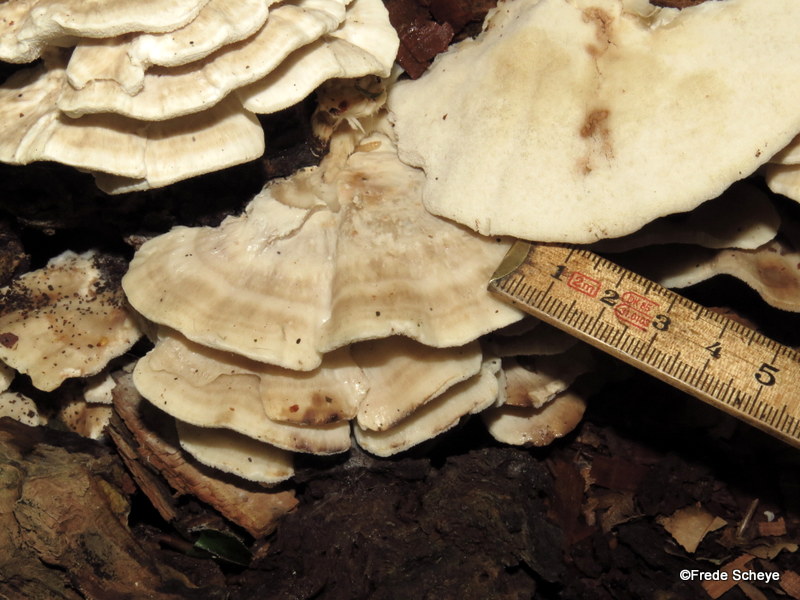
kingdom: Fungi
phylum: Basidiomycota
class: Agaricomycetes
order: Polyporales
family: Polyporaceae
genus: Trametes
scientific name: Trametes hirsuta
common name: håret læderporesvamp
